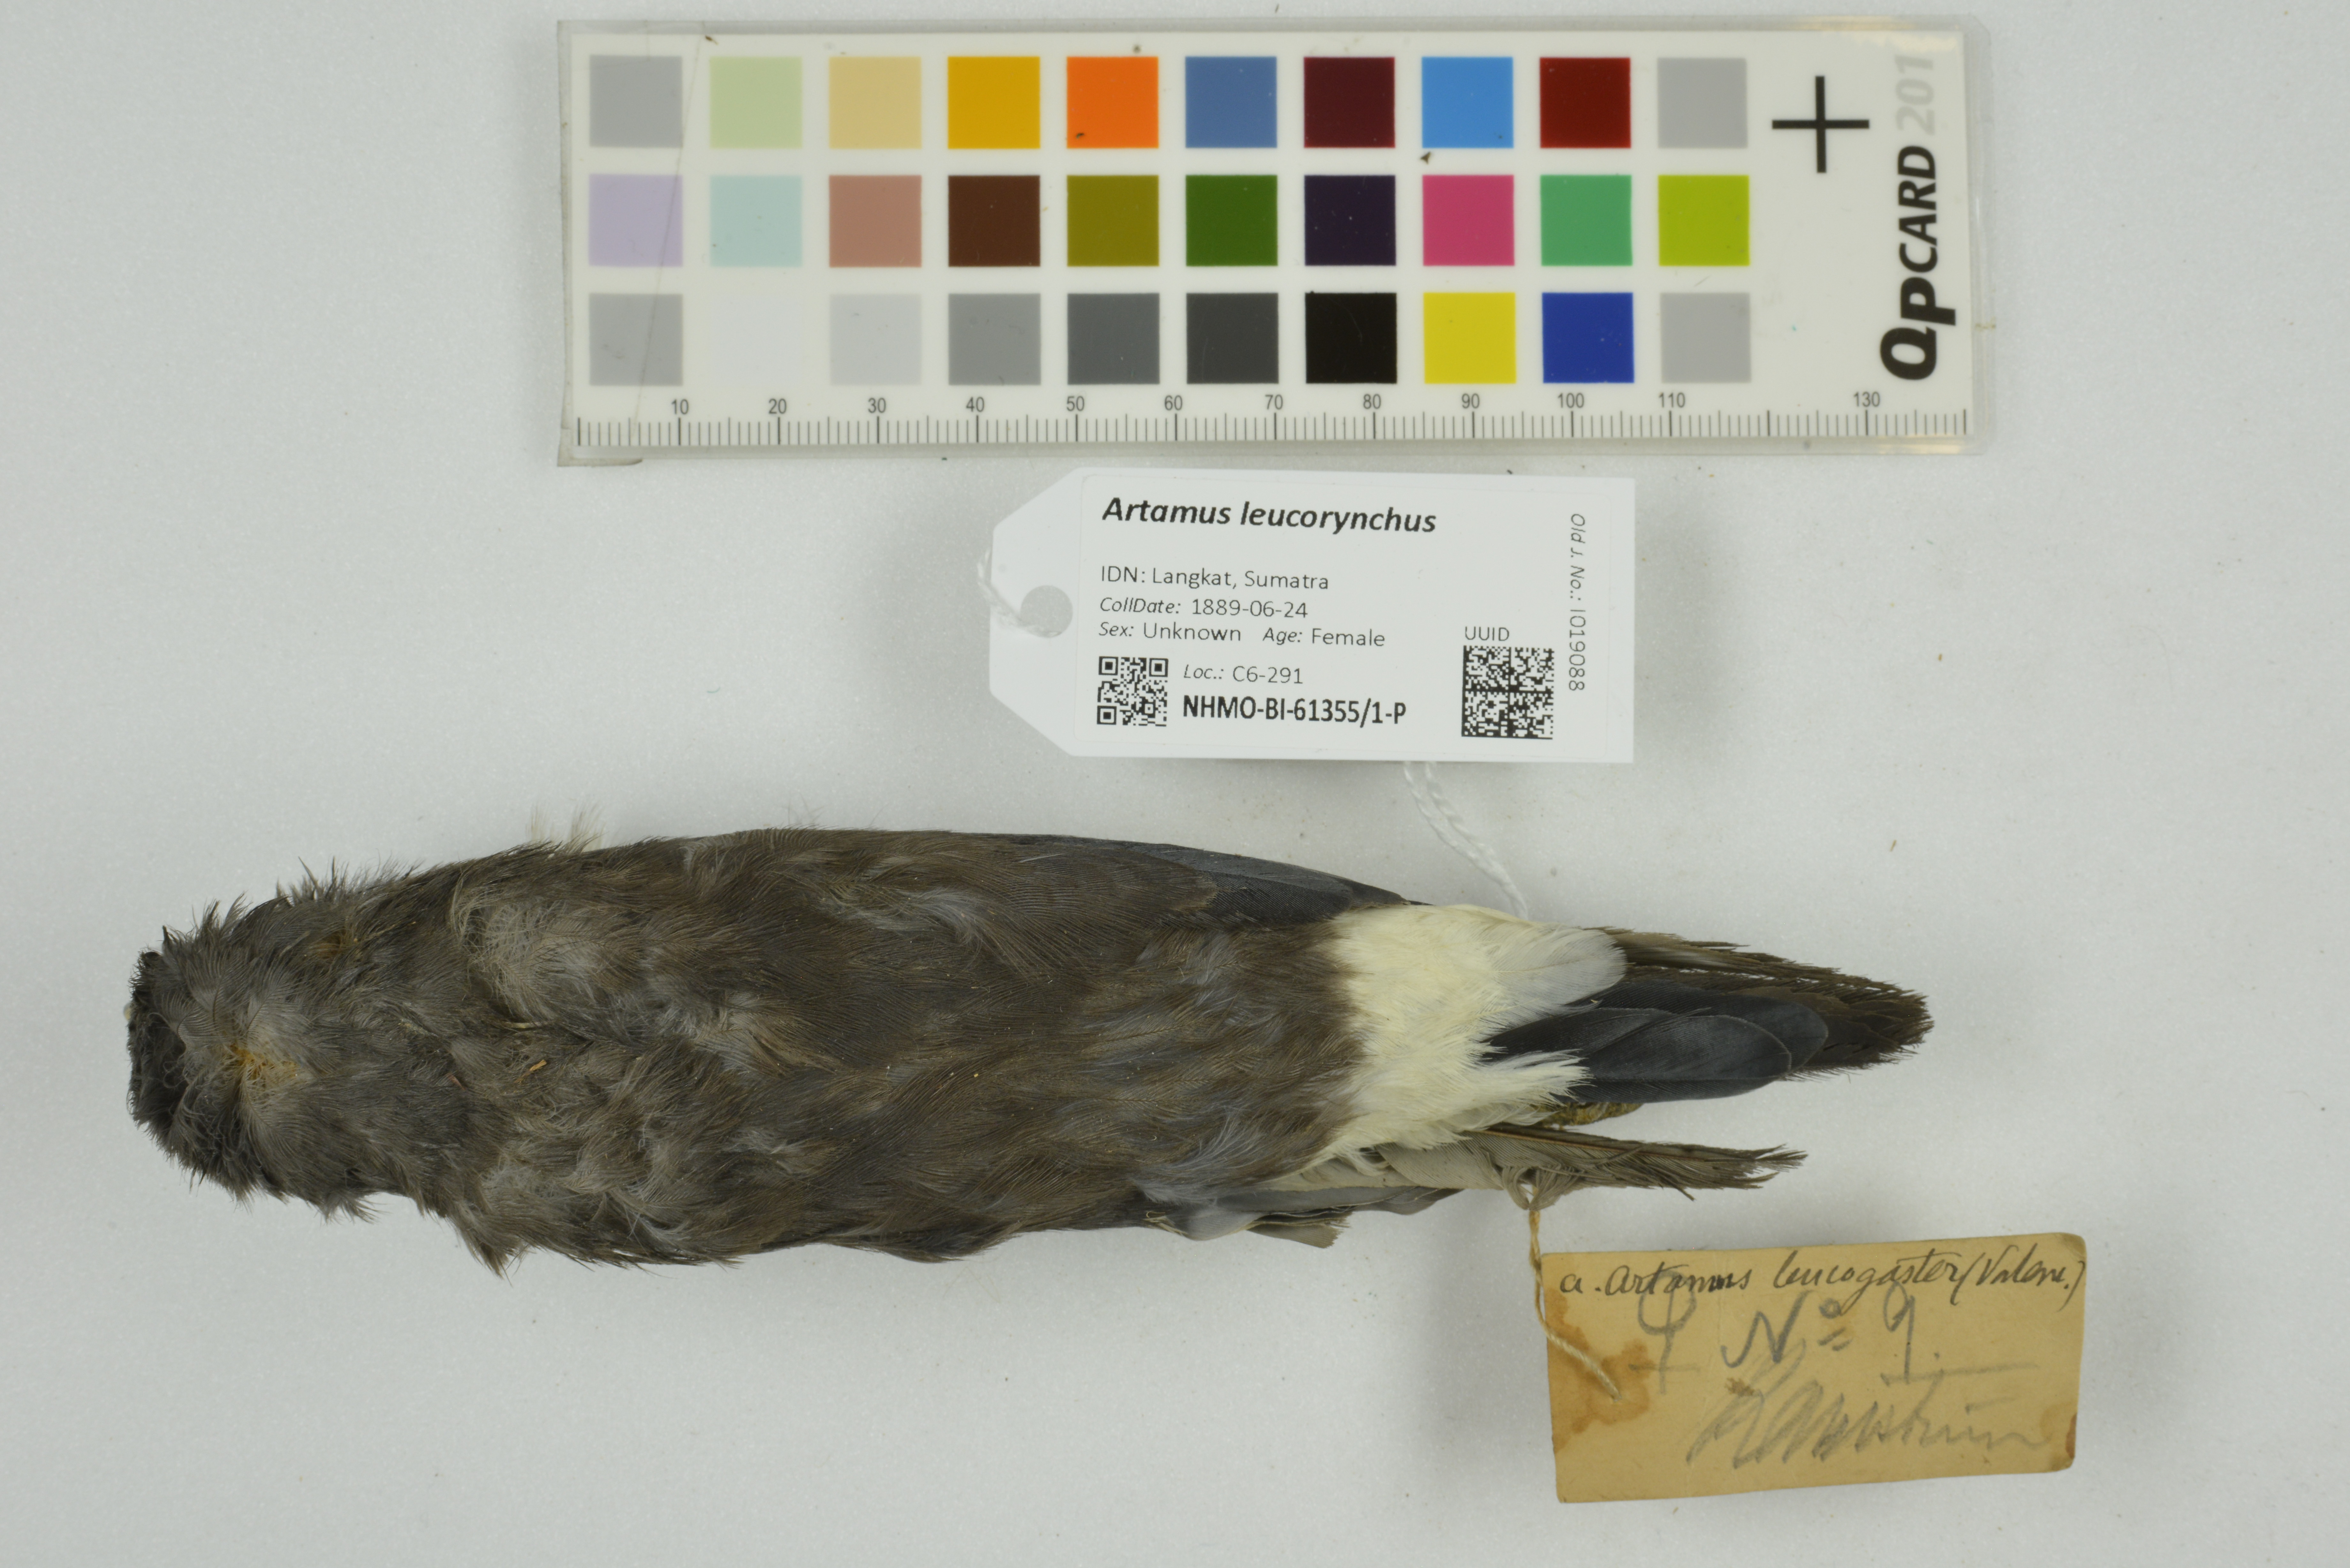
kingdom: Animalia
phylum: Chordata
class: Aves
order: Passeriformes
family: Artamidae
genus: Artamus
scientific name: Artamus leucoryn
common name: White-breasted woodswallow
